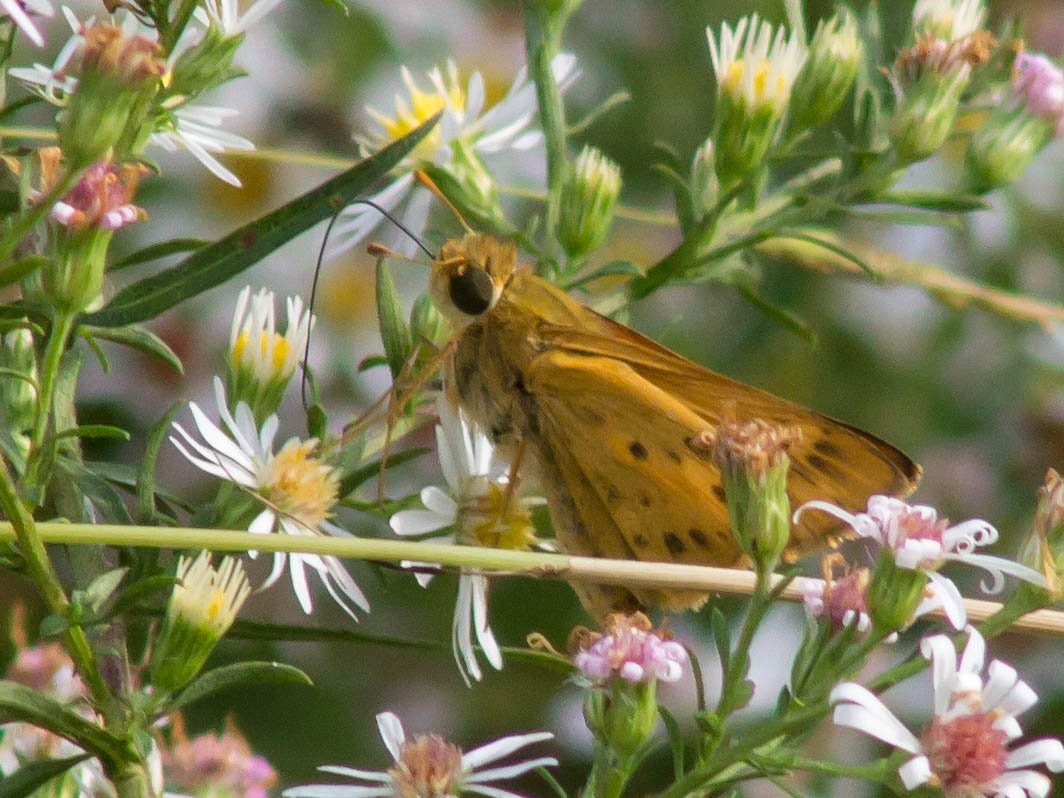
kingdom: Animalia
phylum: Arthropoda
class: Insecta
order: Lepidoptera
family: Hesperiidae
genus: Hylephila
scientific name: Hylephila phyleus
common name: Fiery Skipper
